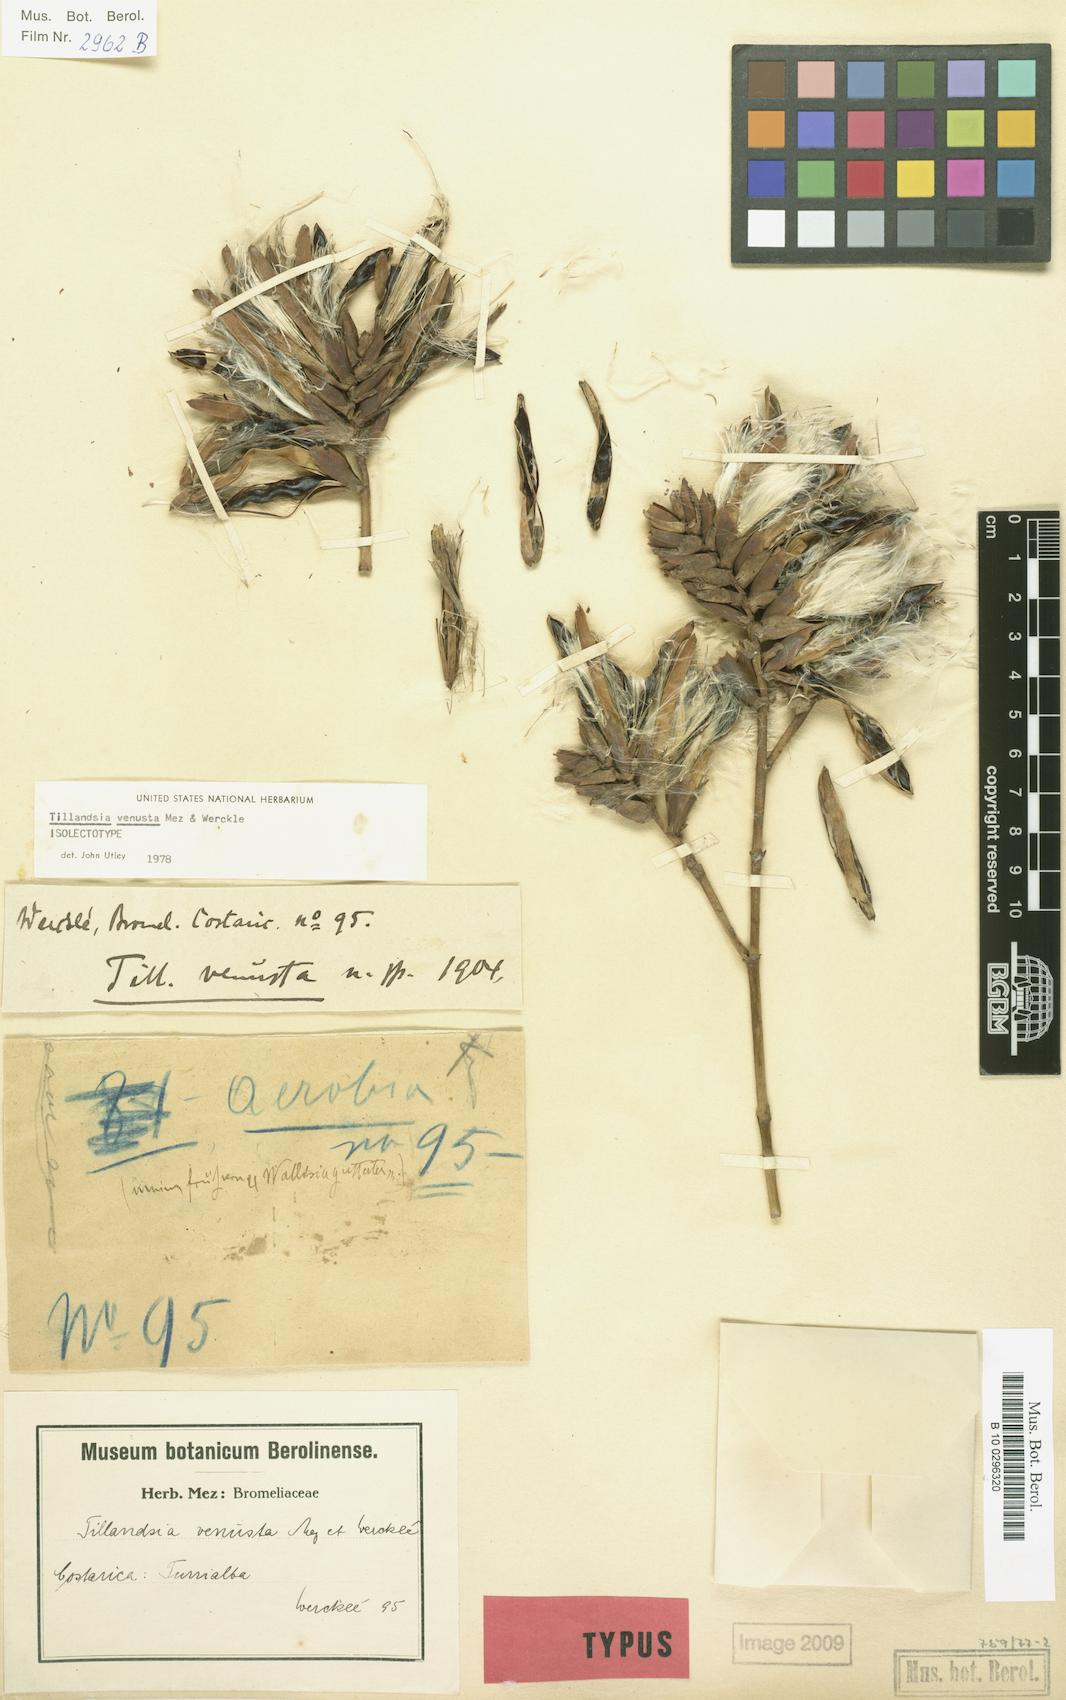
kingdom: Plantae
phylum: Tracheophyta
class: Liliopsida
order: Poales
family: Bromeliaceae
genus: Racinaea
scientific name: Racinaea venusta
